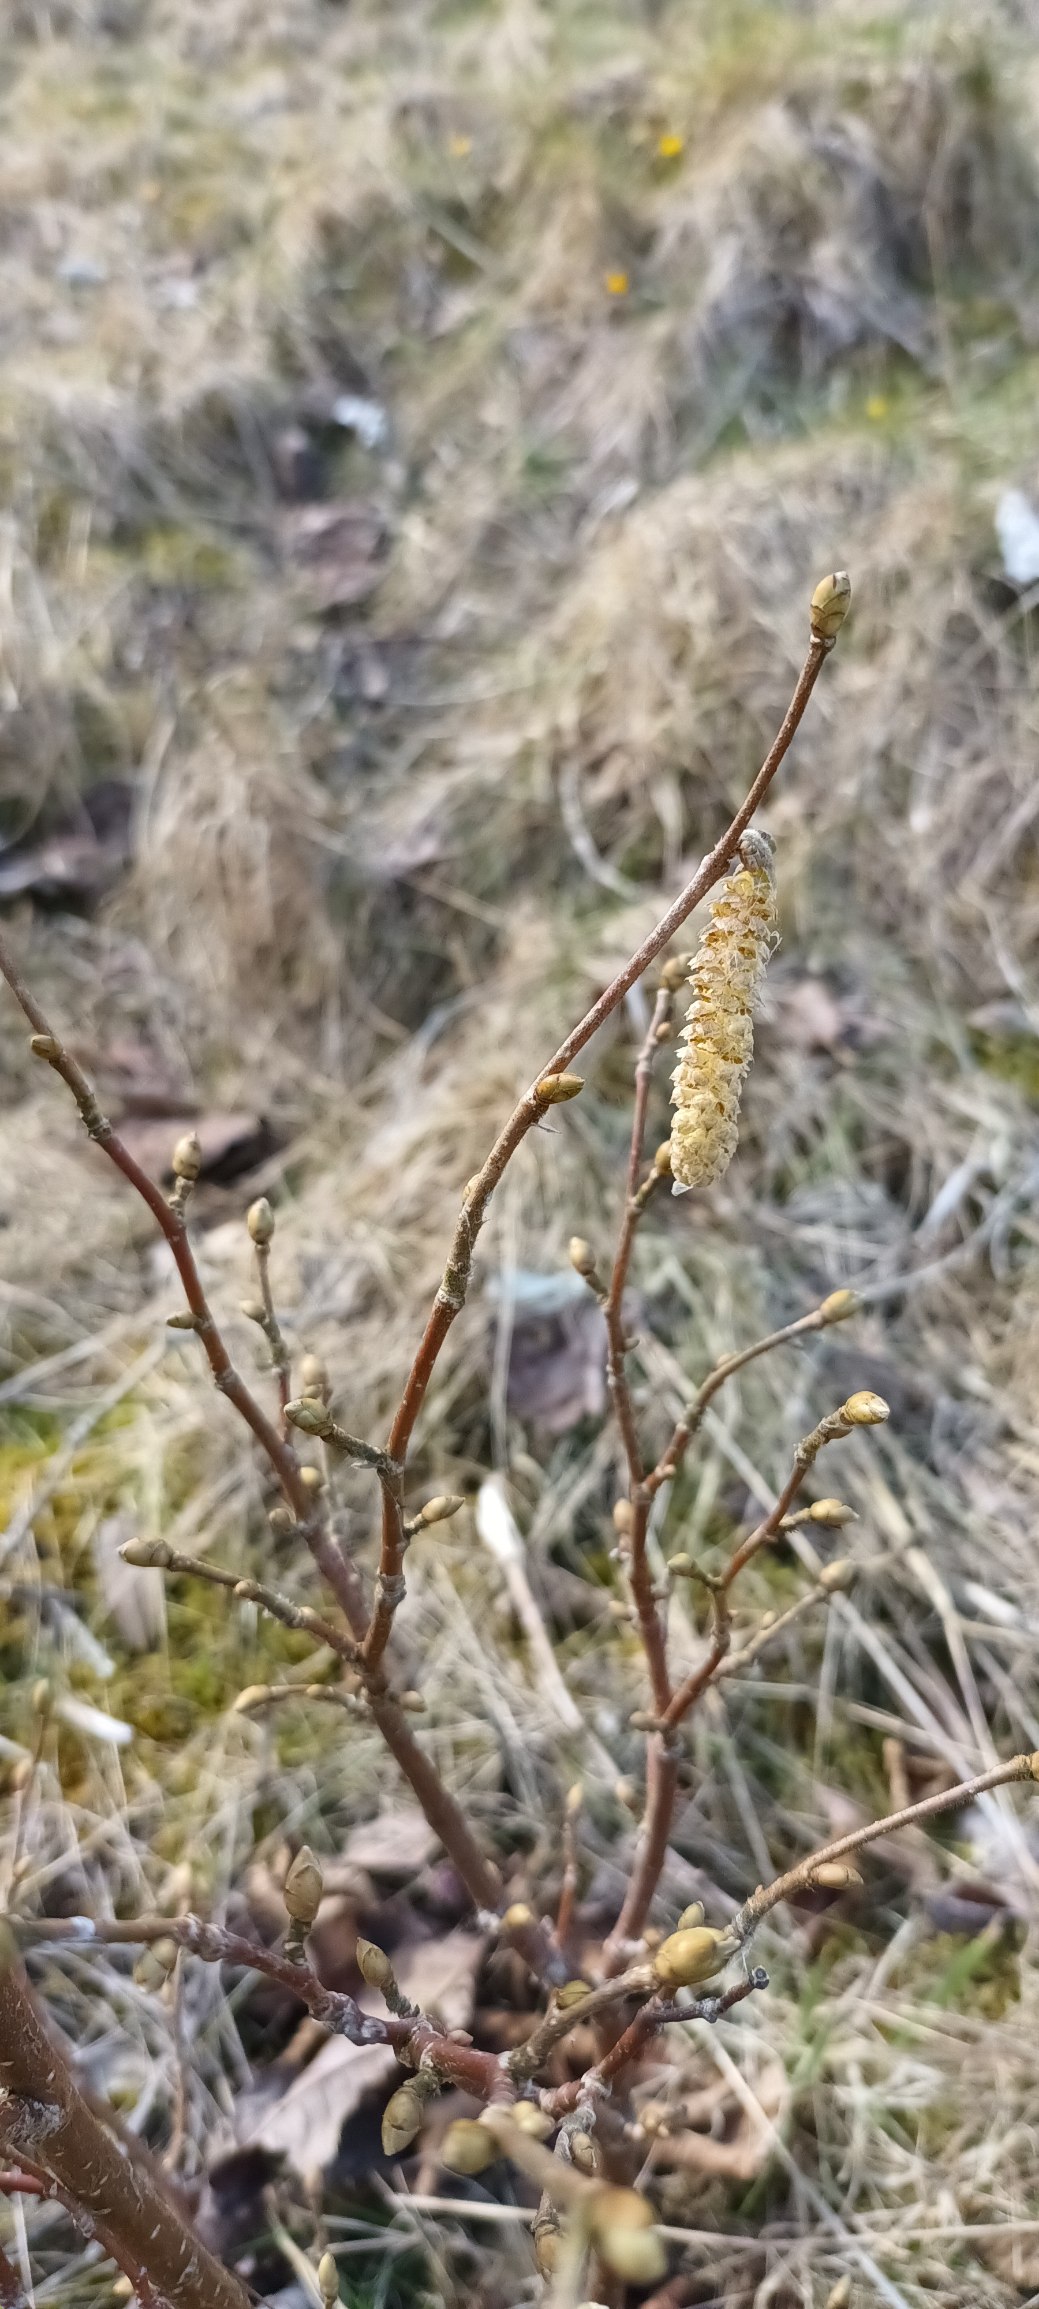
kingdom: Plantae
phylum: Tracheophyta
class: Magnoliopsida
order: Fagales
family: Betulaceae
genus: Corylus
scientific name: Corylus avellana
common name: Hassel
